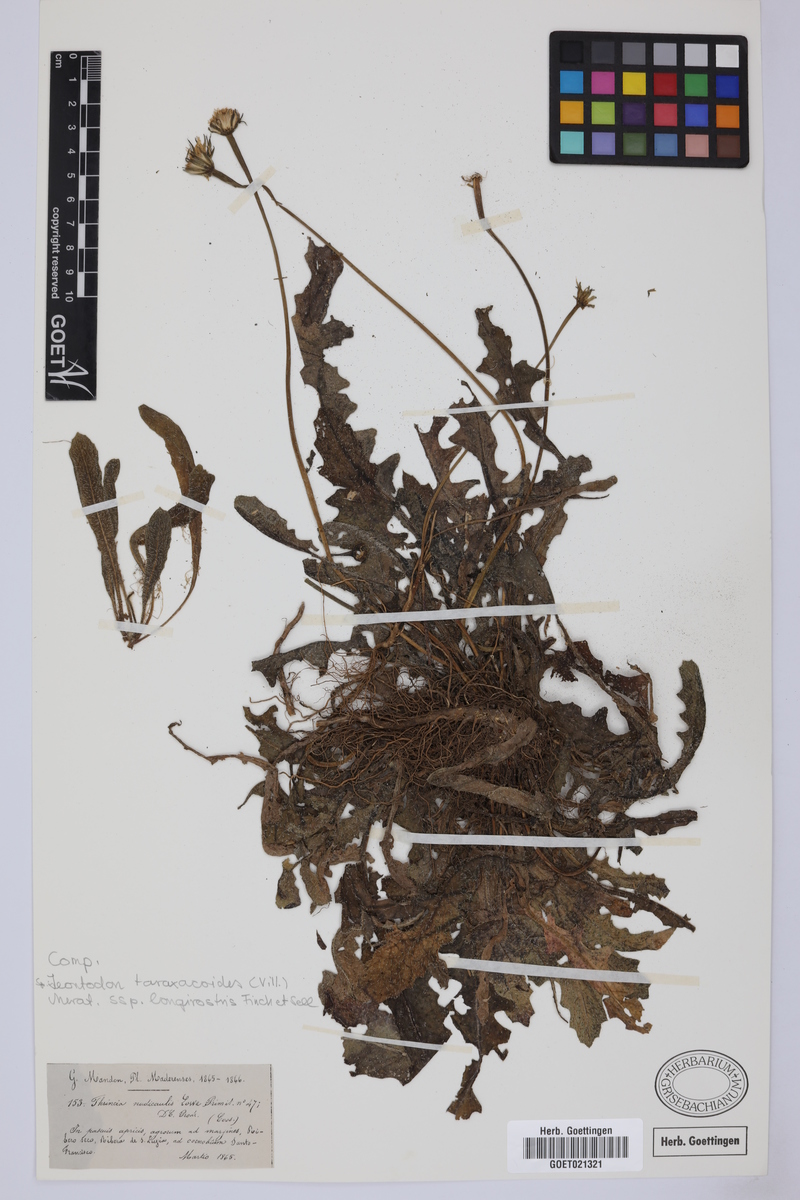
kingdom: Plantae
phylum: Tracheophyta
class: Magnoliopsida
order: Asterales
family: Asteraceae
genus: Thrincia
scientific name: Thrincia hispida
